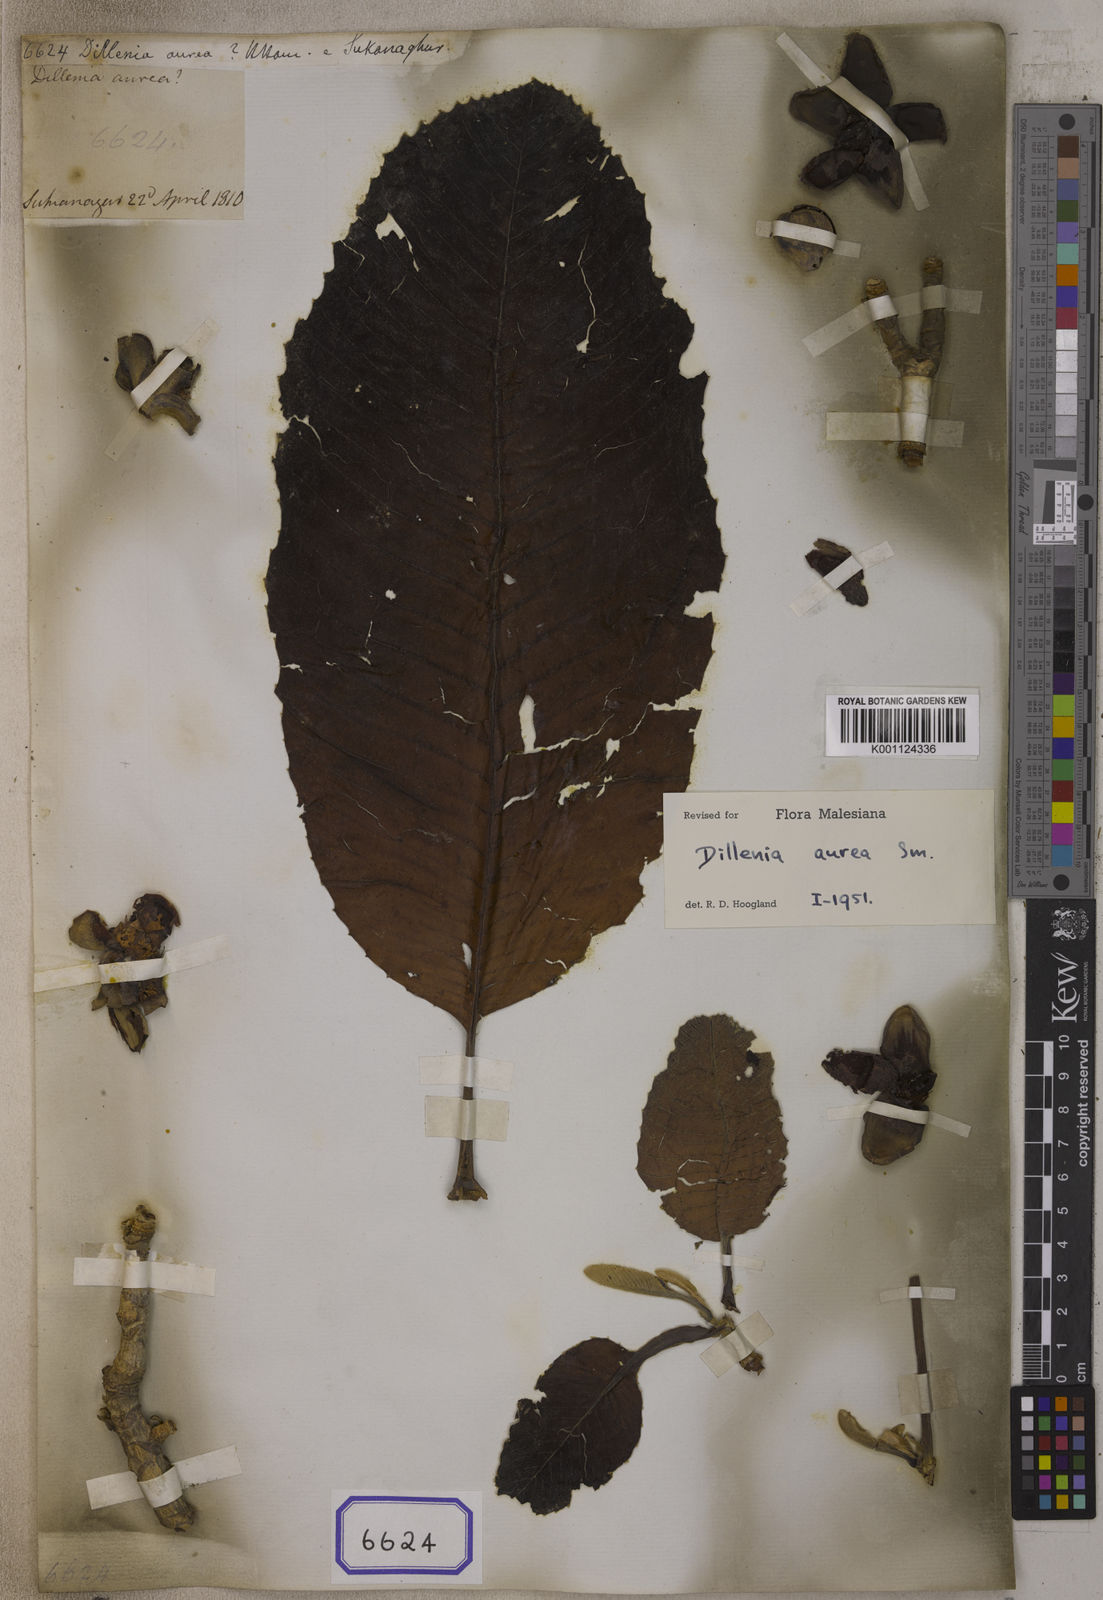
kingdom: Plantae
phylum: Tracheophyta
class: Magnoliopsida
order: Dilleniales
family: Dilleniaceae
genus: Dillenia
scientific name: Dillenia aurea
